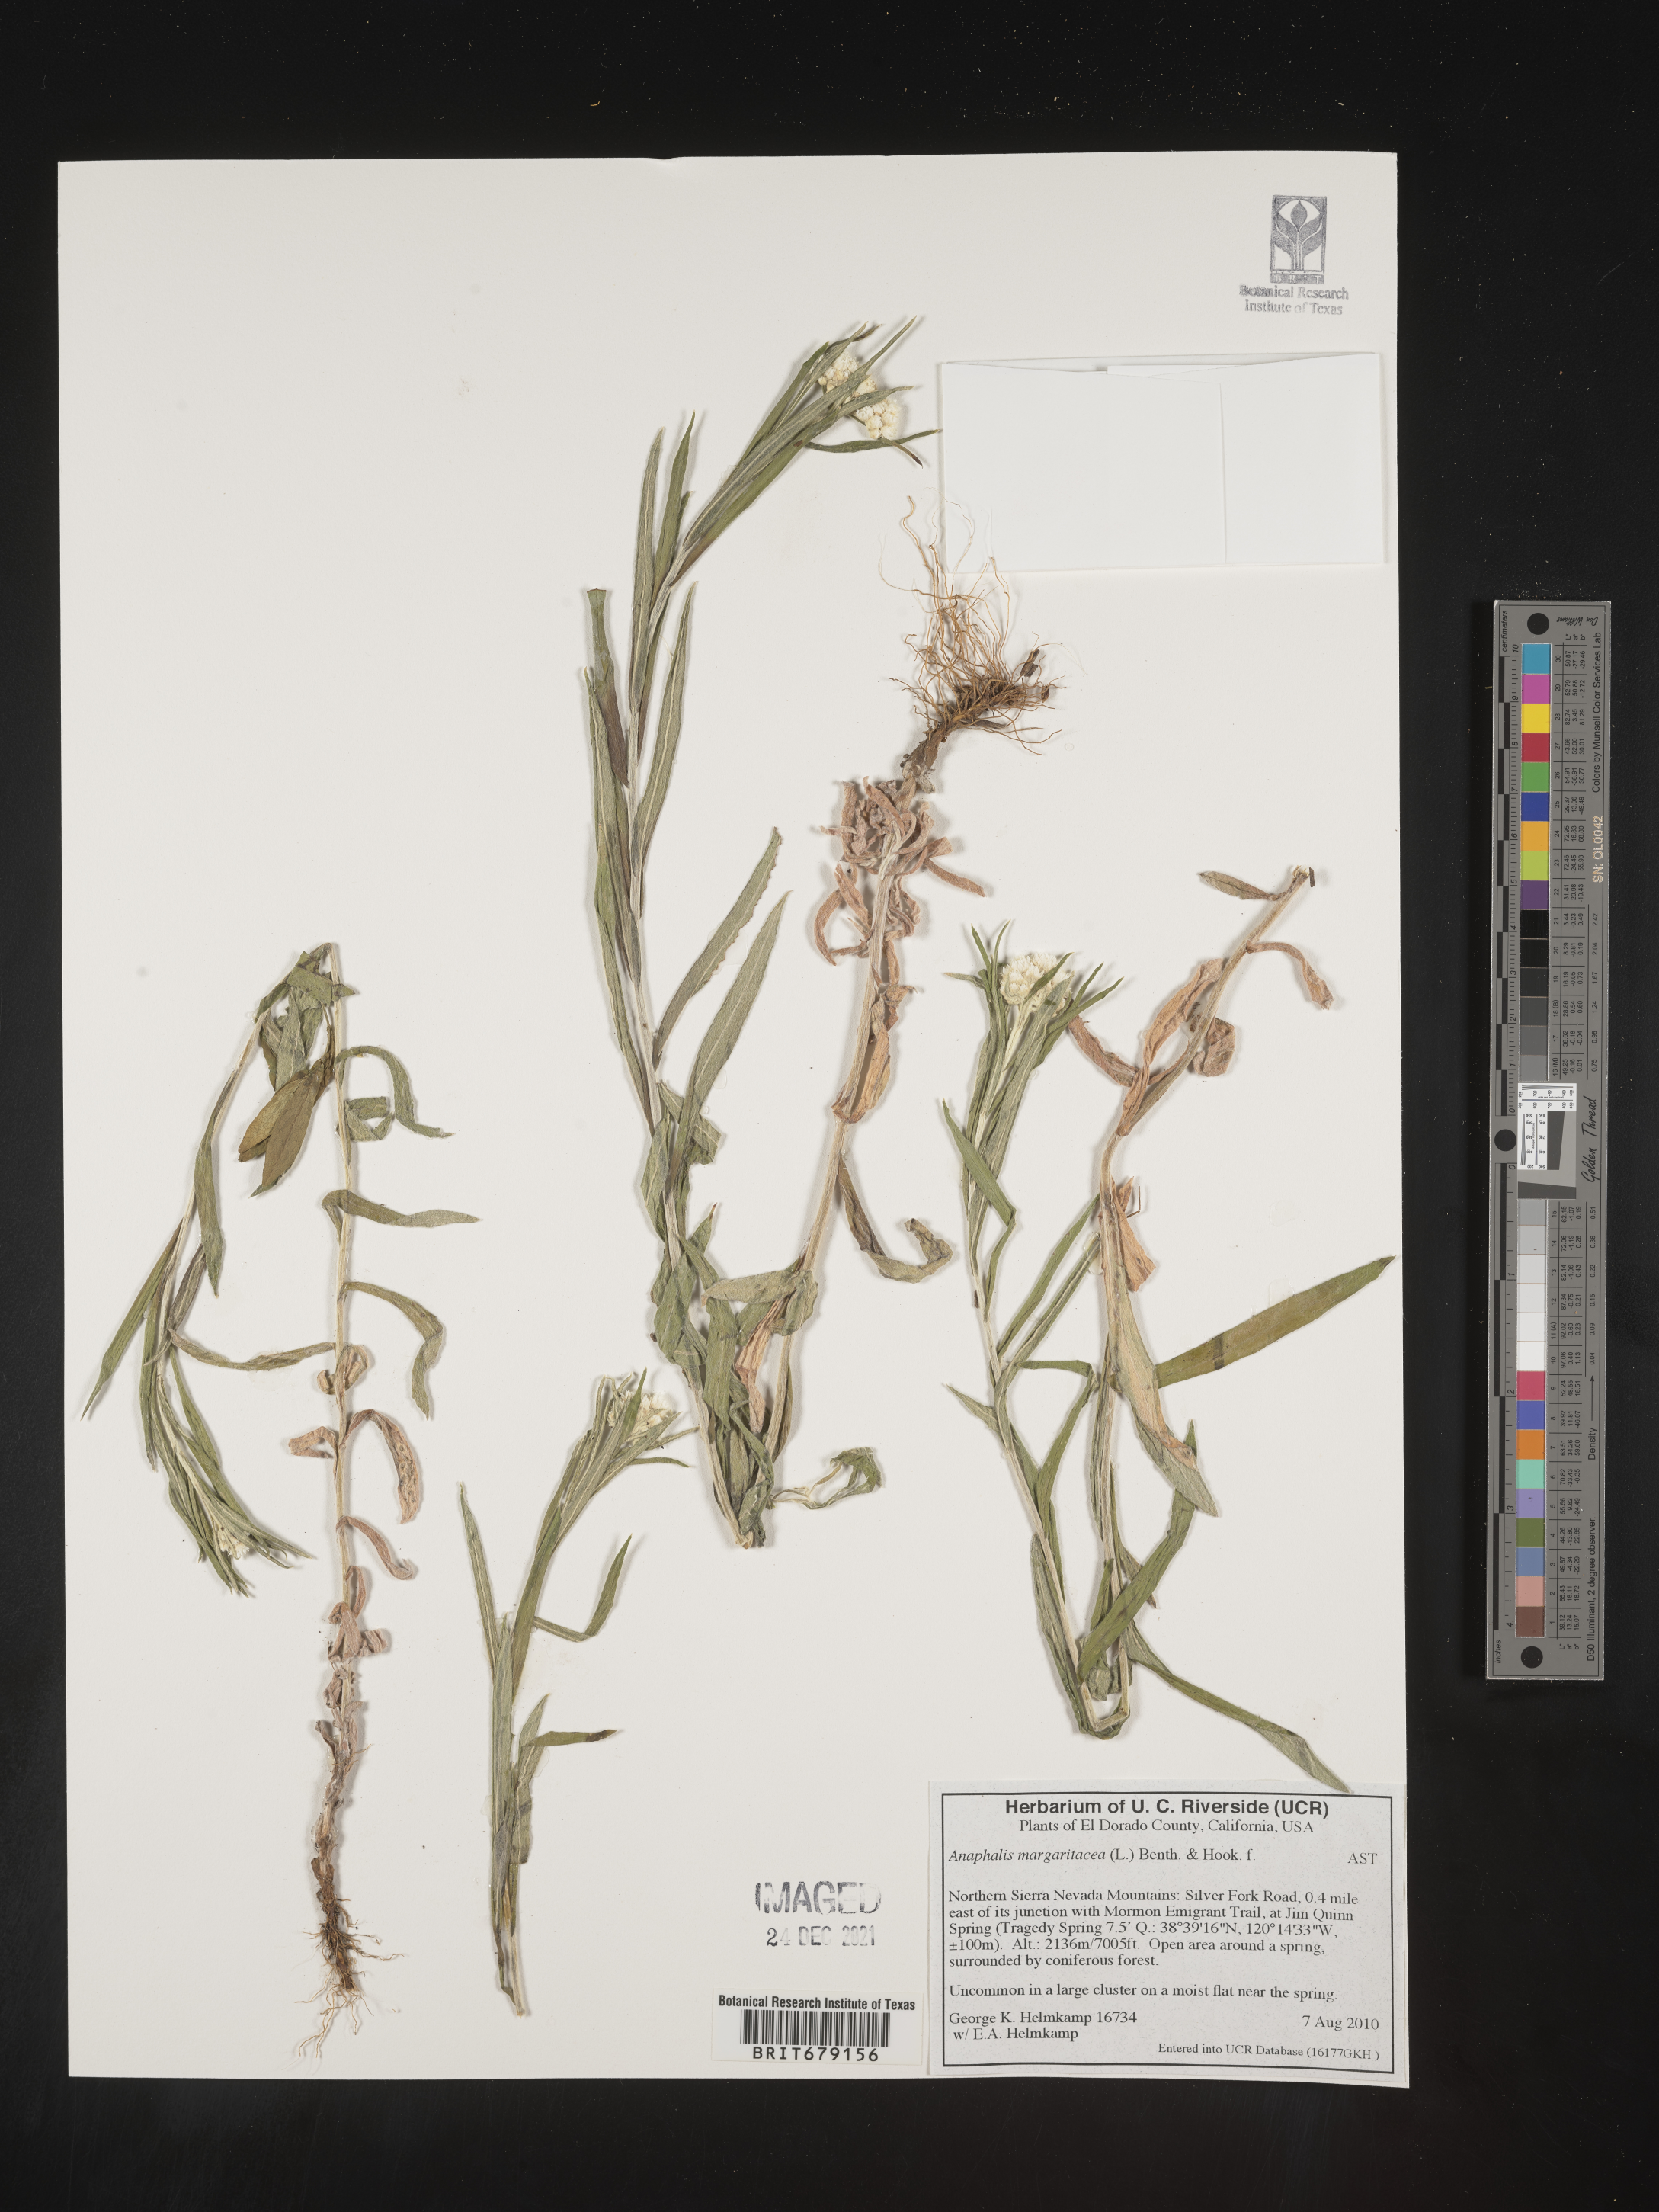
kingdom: Plantae
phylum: Tracheophyta
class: Magnoliopsida
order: Asterales
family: Asteraceae
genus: Anaphalis
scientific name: Anaphalis margaritacea
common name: Pearly everlasting
